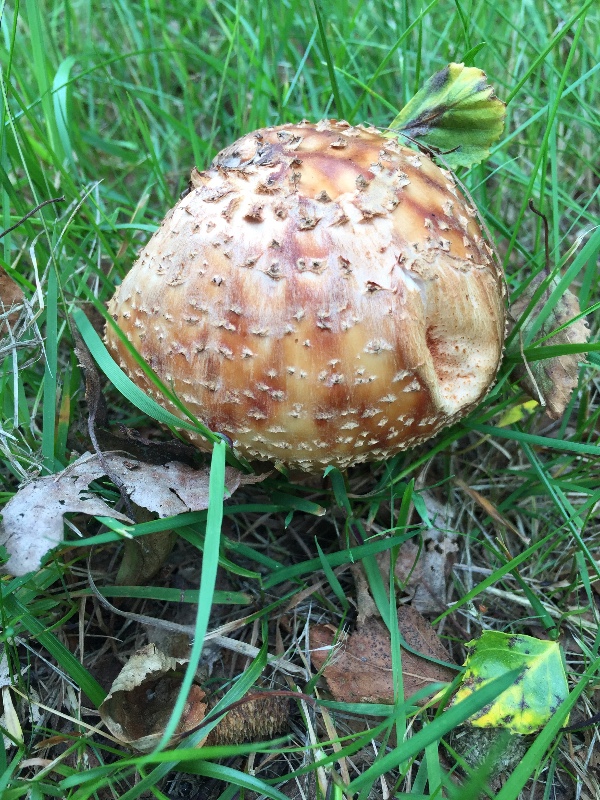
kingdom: Fungi
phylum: Basidiomycota
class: Agaricomycetes
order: Agaricales
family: Amanitaceae
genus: Amanita
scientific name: Amanita rubescens
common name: rødmende fluesvamp
